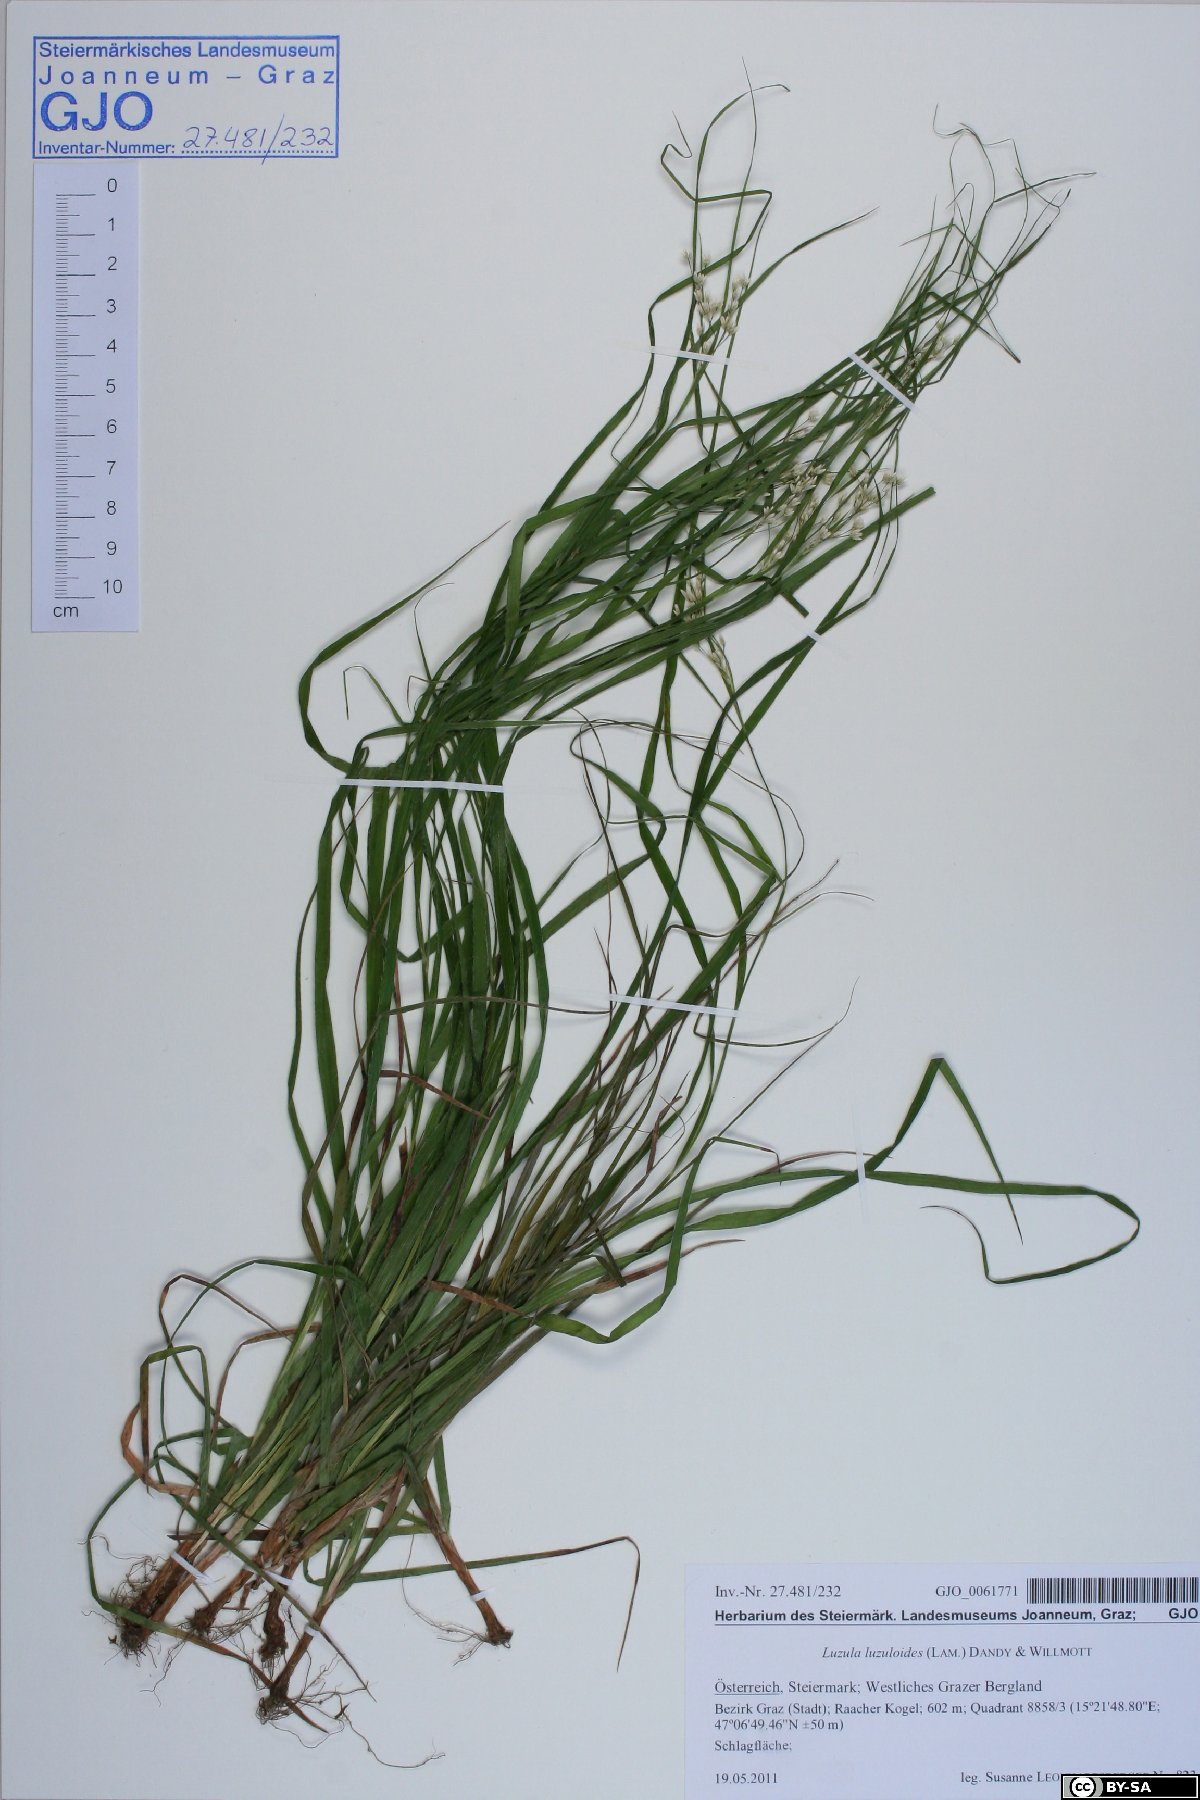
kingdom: Plantae
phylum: Tracheophyta
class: Liliopsida
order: Poales
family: Juncaceae
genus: Luzula
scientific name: Luzula luzuloides
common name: White wood-rush
